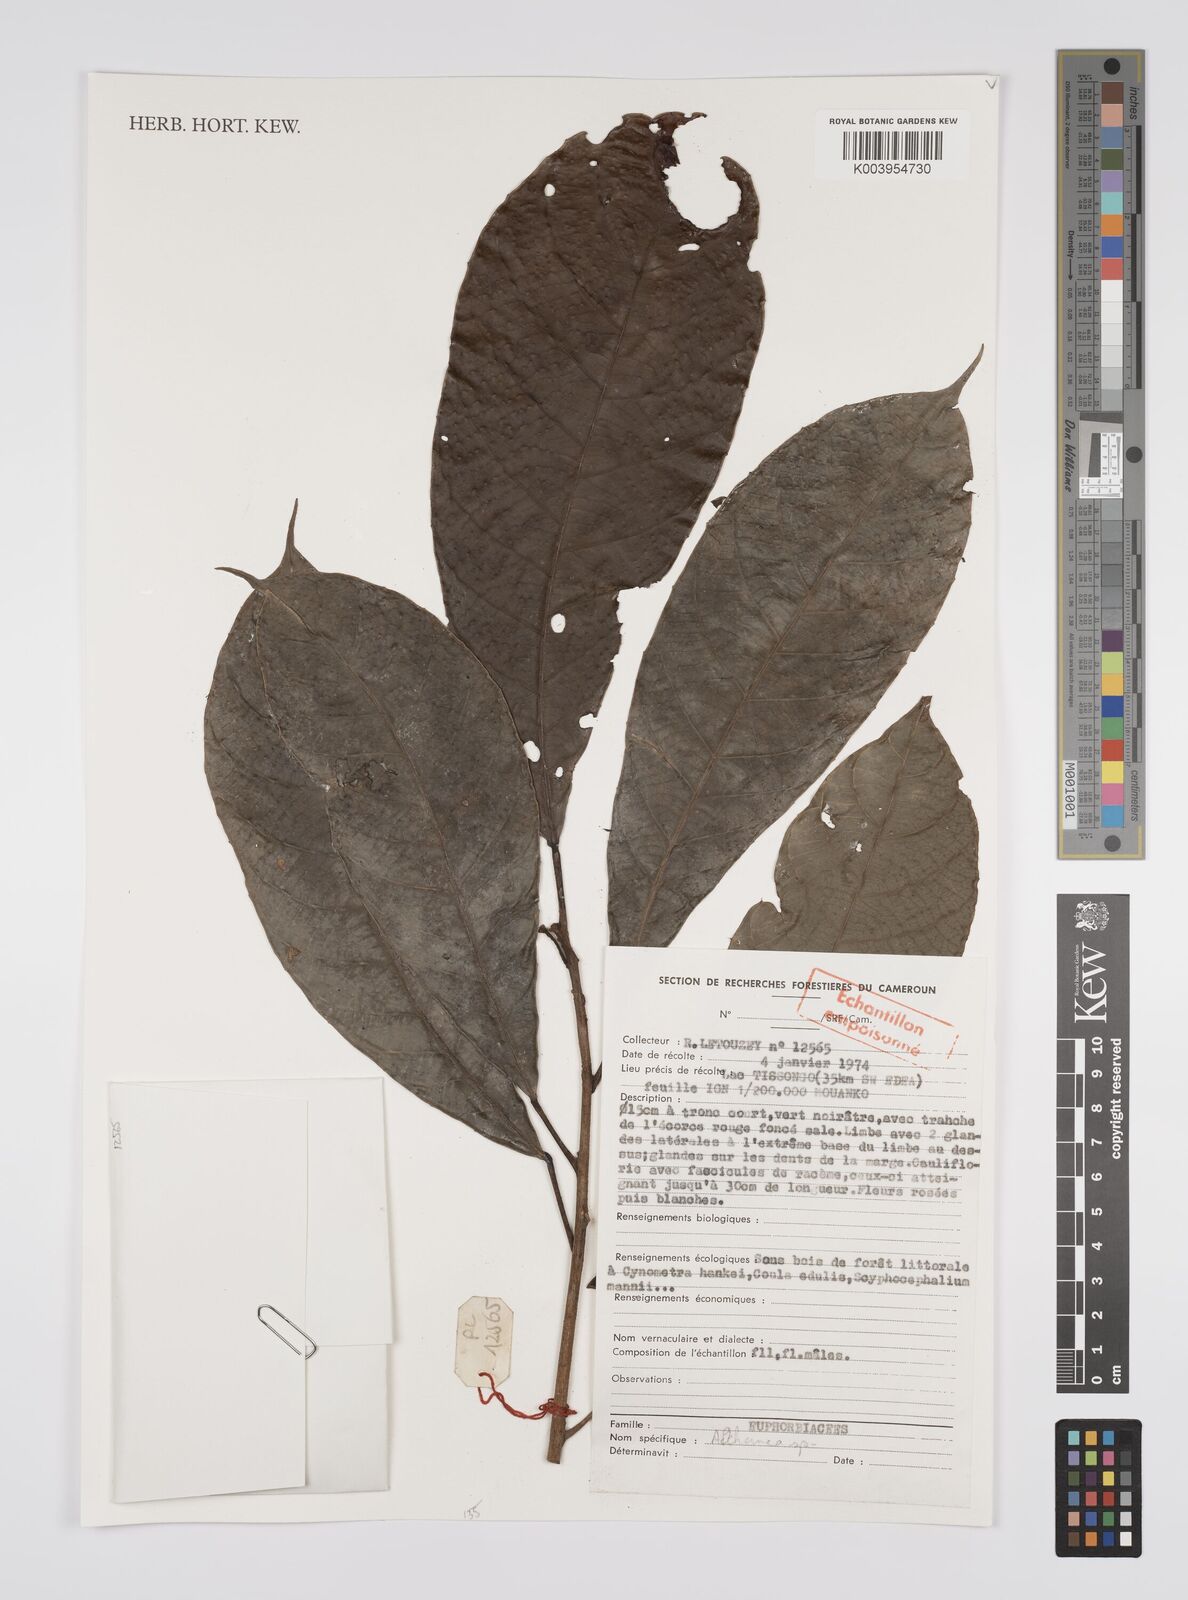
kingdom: Plantae
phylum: Tracheophyta
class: Magnoliopsida
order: Malpighiales
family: Euphorbiaceae
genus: Alchornea
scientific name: Alchornea
